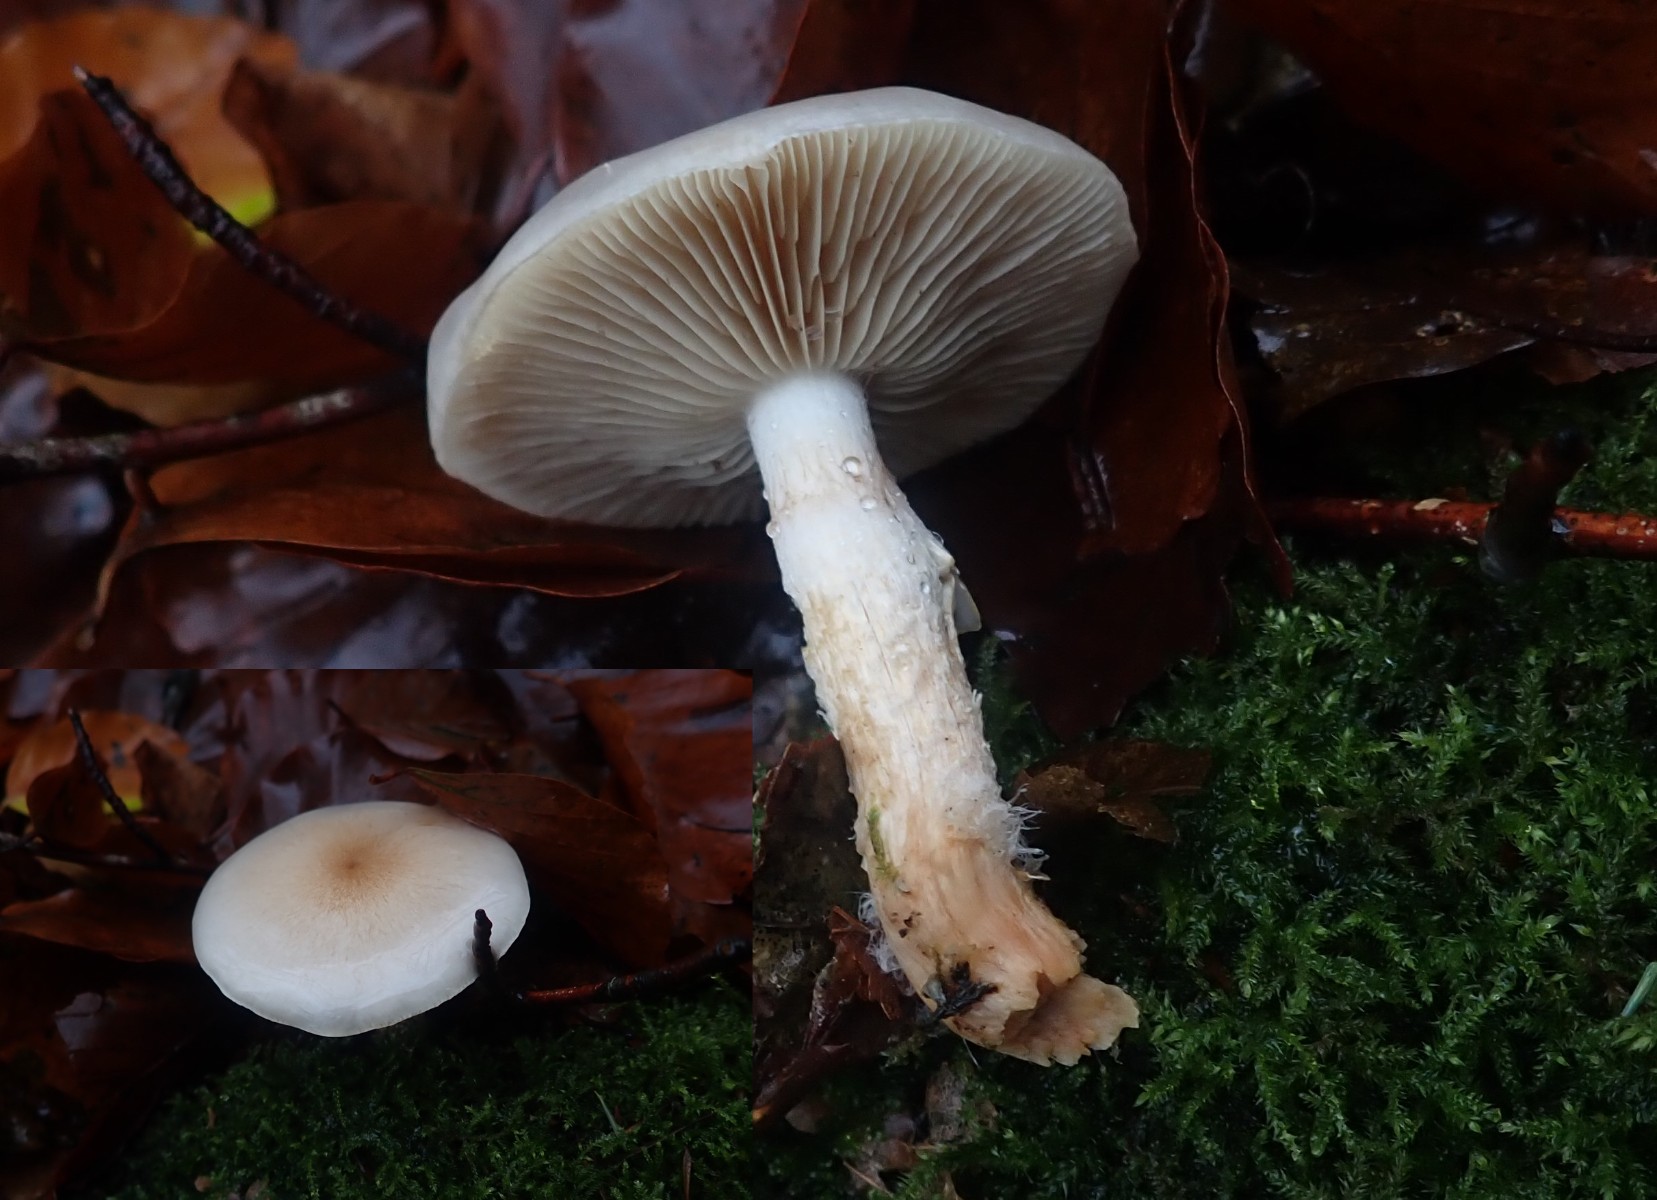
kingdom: Fungi
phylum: Basidiomycota
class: Agaricomycetes
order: Agaricales
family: Strophariaceae
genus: Pholiota
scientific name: Pholiota lenta
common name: løv-skælhat
